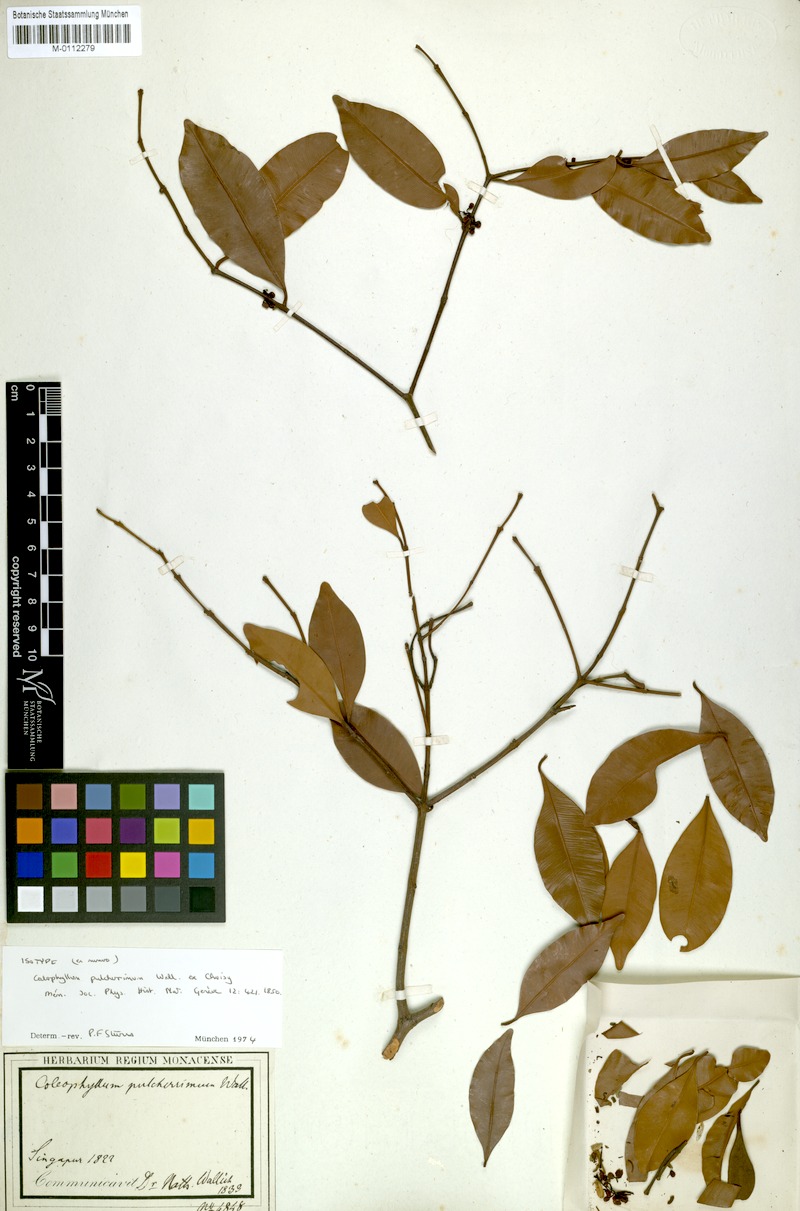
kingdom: Plantae
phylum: Tracheophyta
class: Magnoliopsida
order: Malpighiales
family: Calophyllaceae
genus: Calophyllum
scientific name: Calophyllum pulcherrimum
